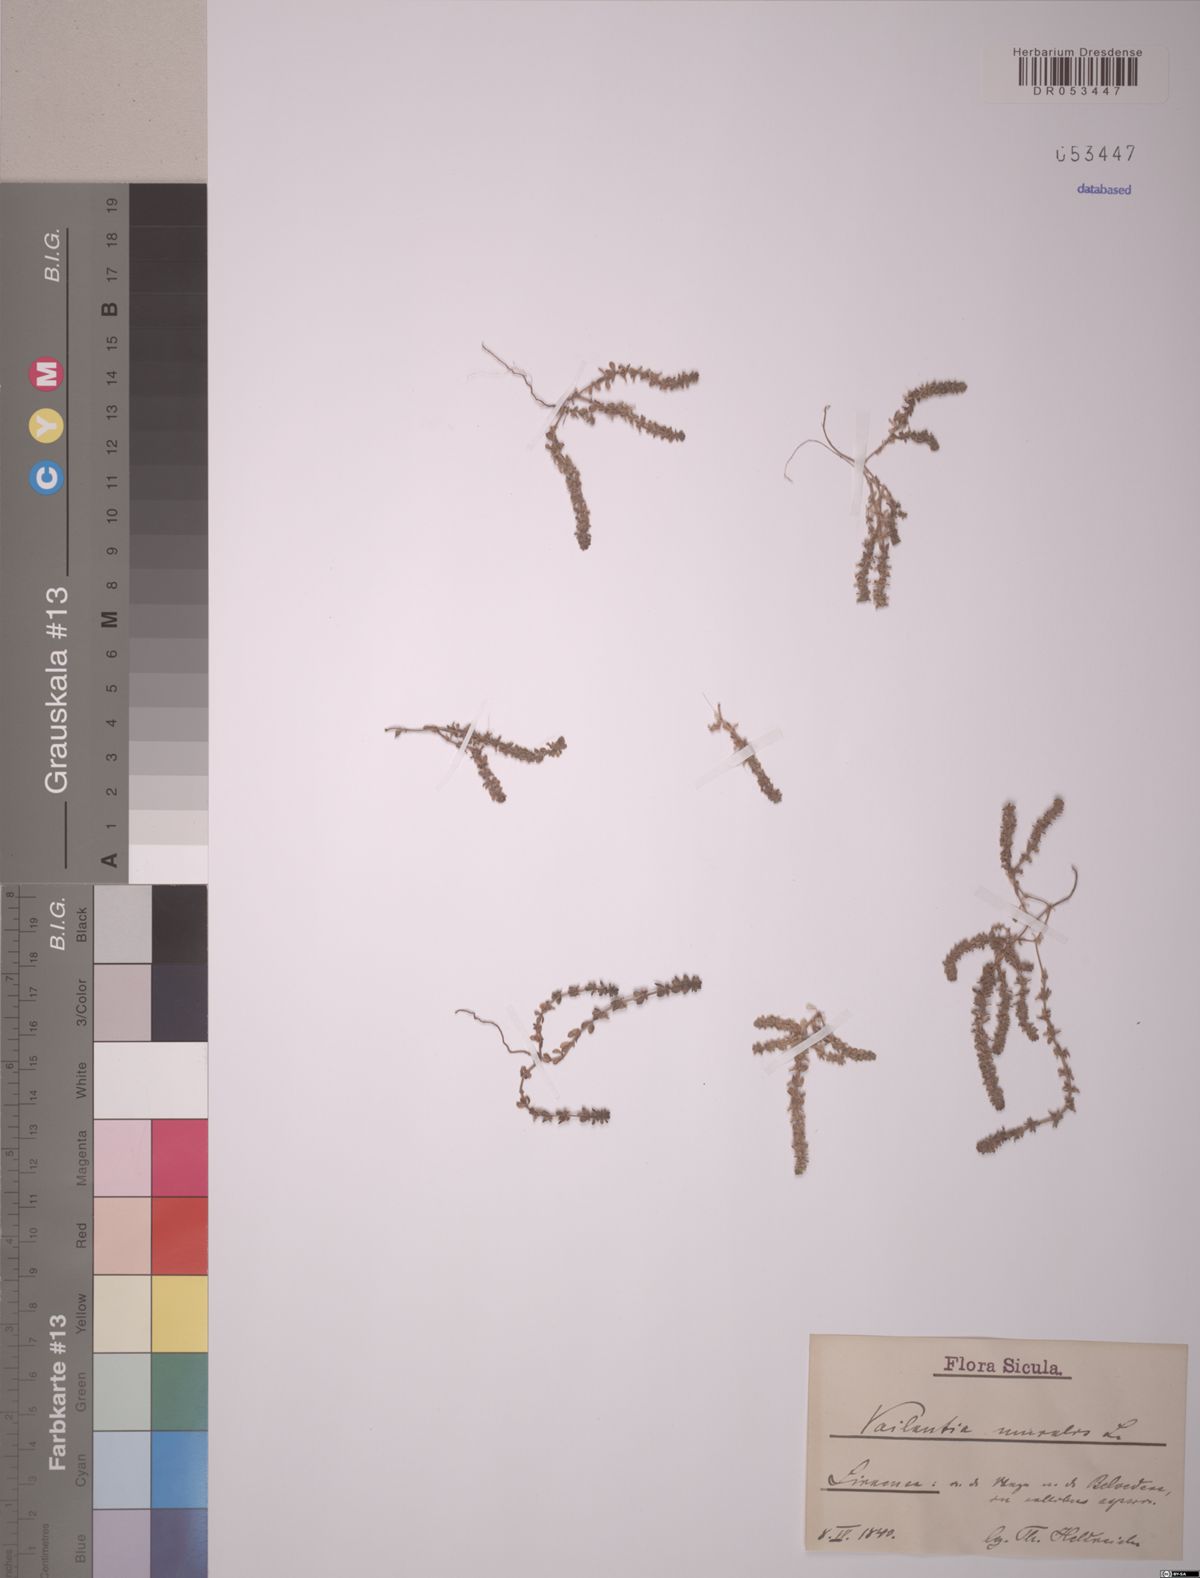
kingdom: Plantae
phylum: Tracheophyta
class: Magnoliopsida
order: Gentianales
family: Rubiaceae
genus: Valantia
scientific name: Valantia muralis
